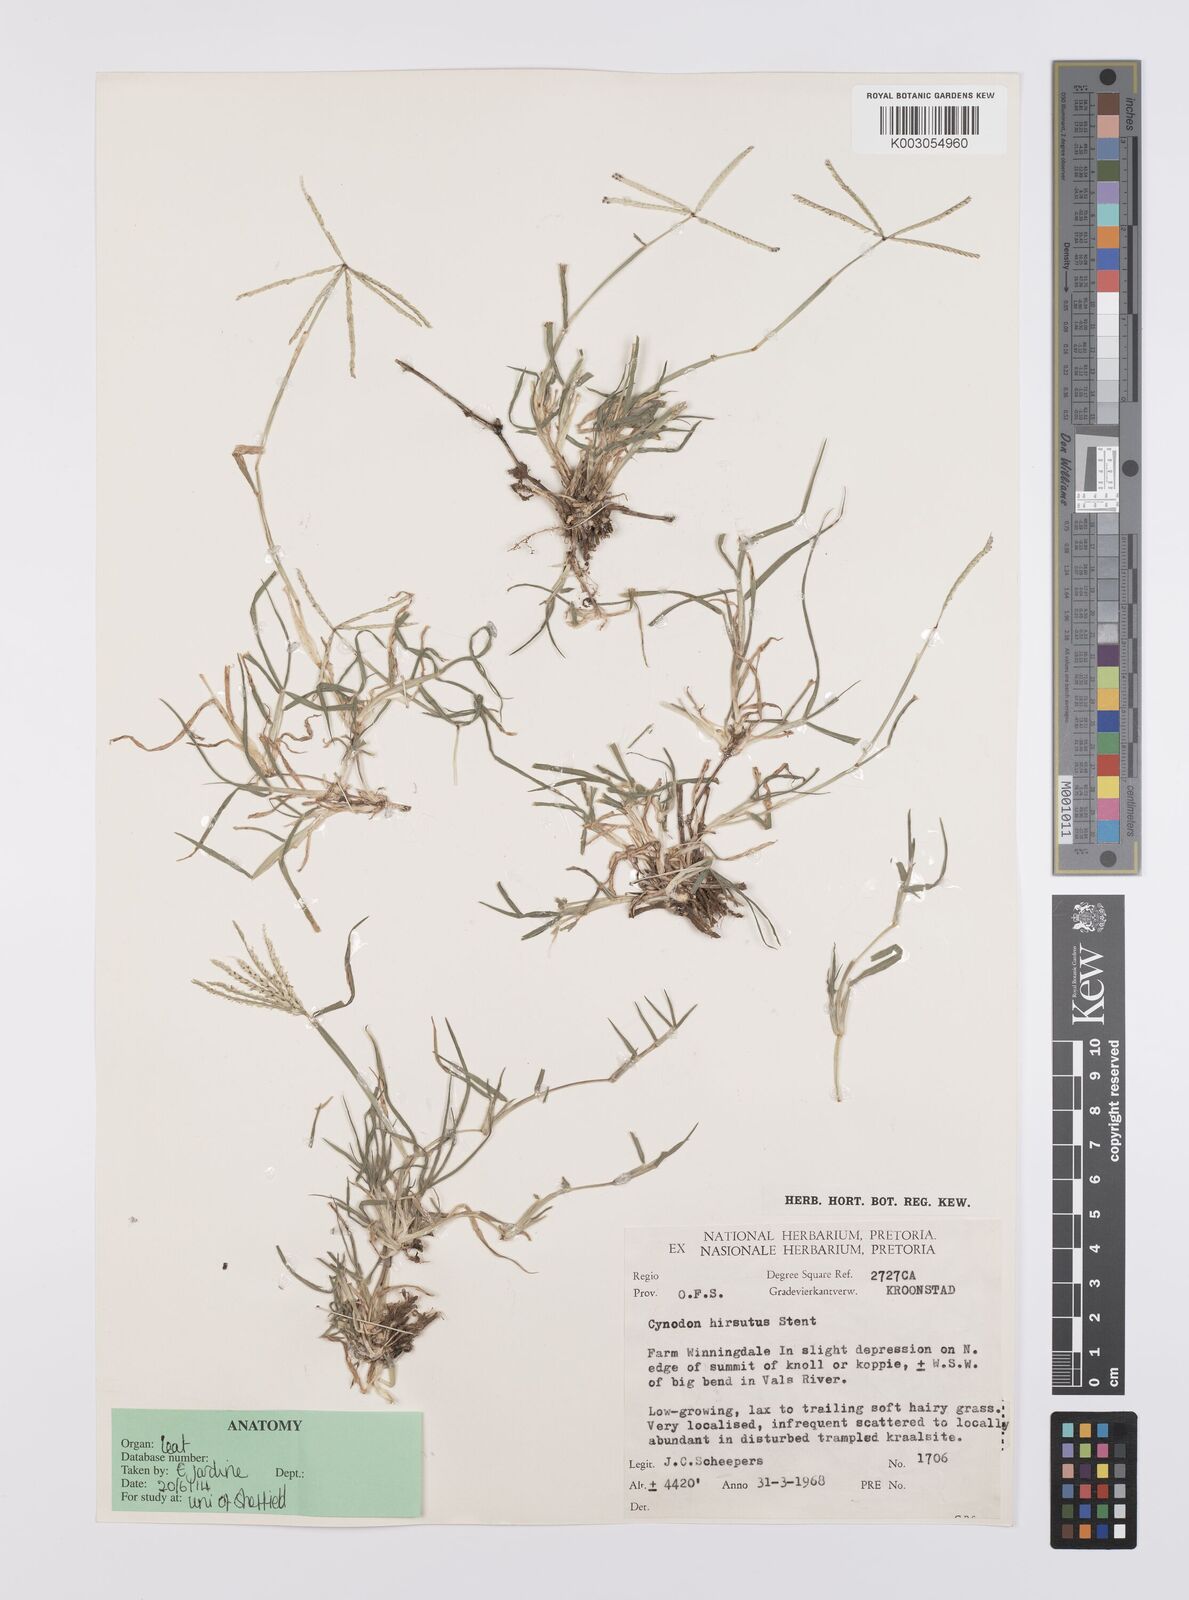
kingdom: Plantae
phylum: Tracheophyta
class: Liliopsida
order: Poales
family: Poaceae
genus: Cynodon
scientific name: Cynodon incompletus
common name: African bermuda-grass
